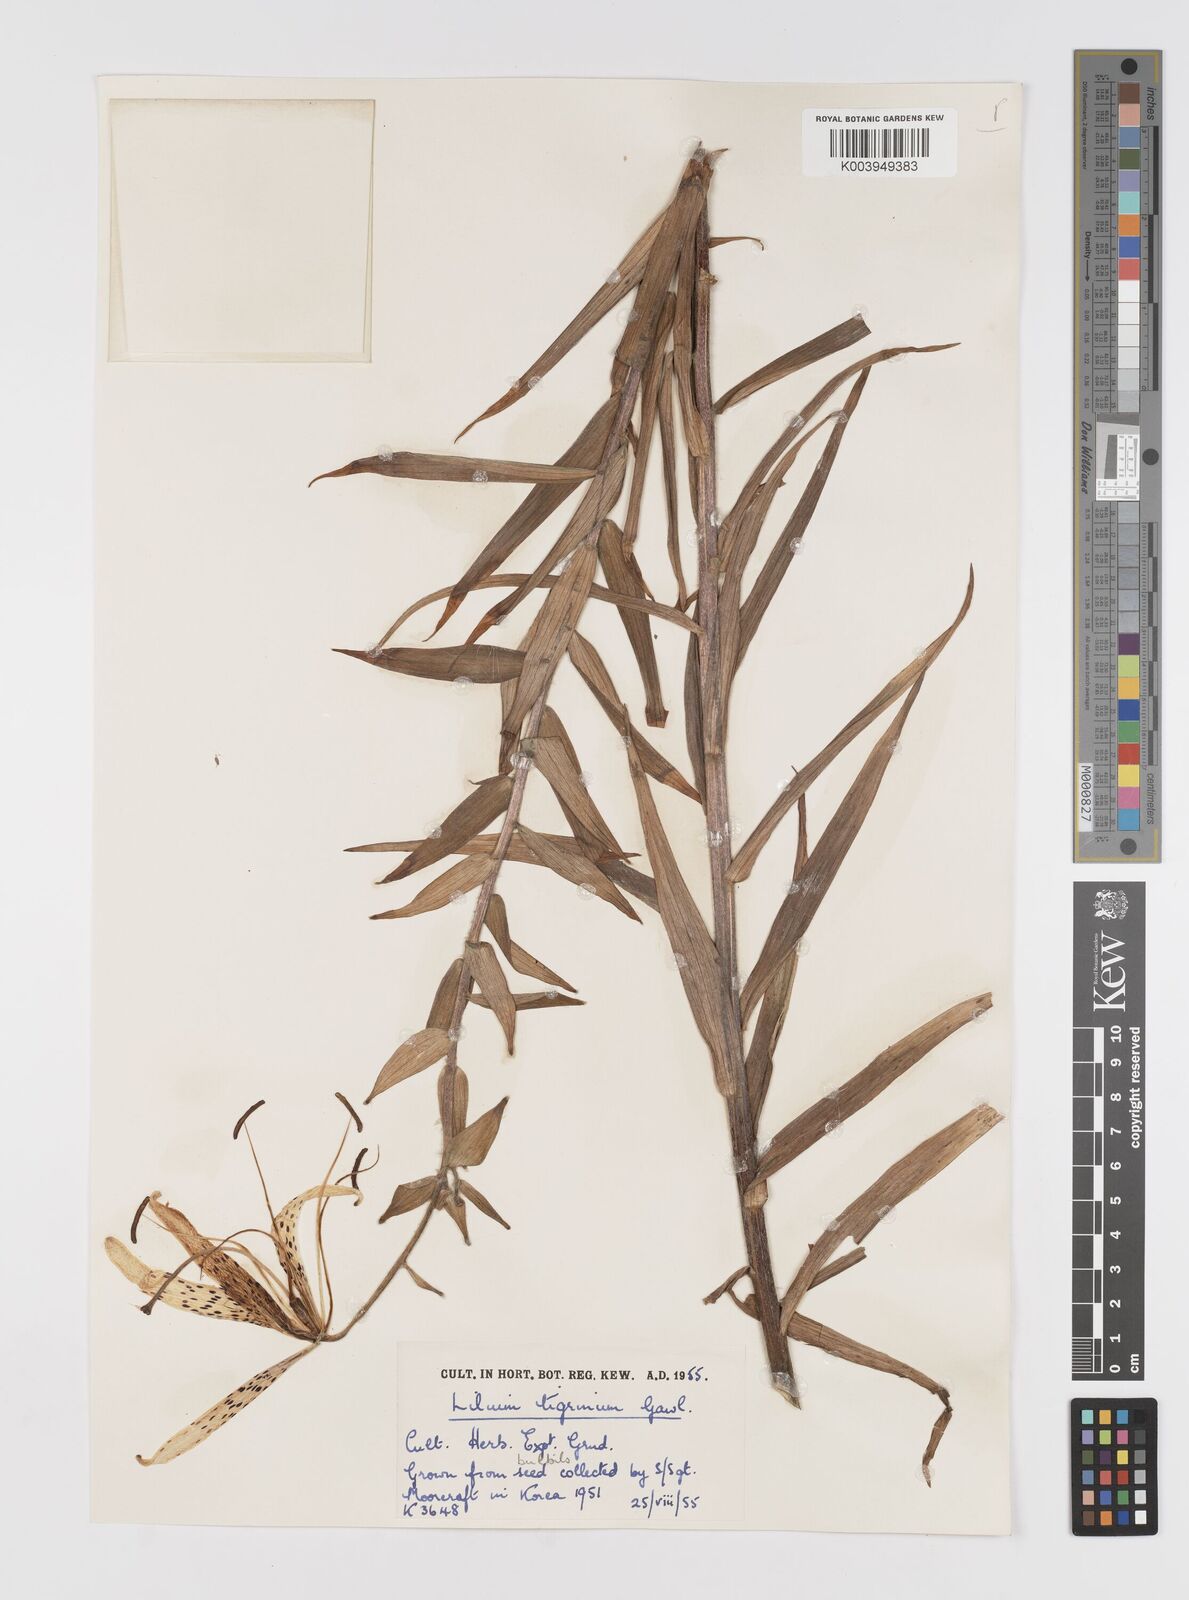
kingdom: Plantae
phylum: Tracheophyta
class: Liliopsida
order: Liliales
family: Liliaceae
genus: Lilium
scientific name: Lilium lancifolium
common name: Tiger lily
